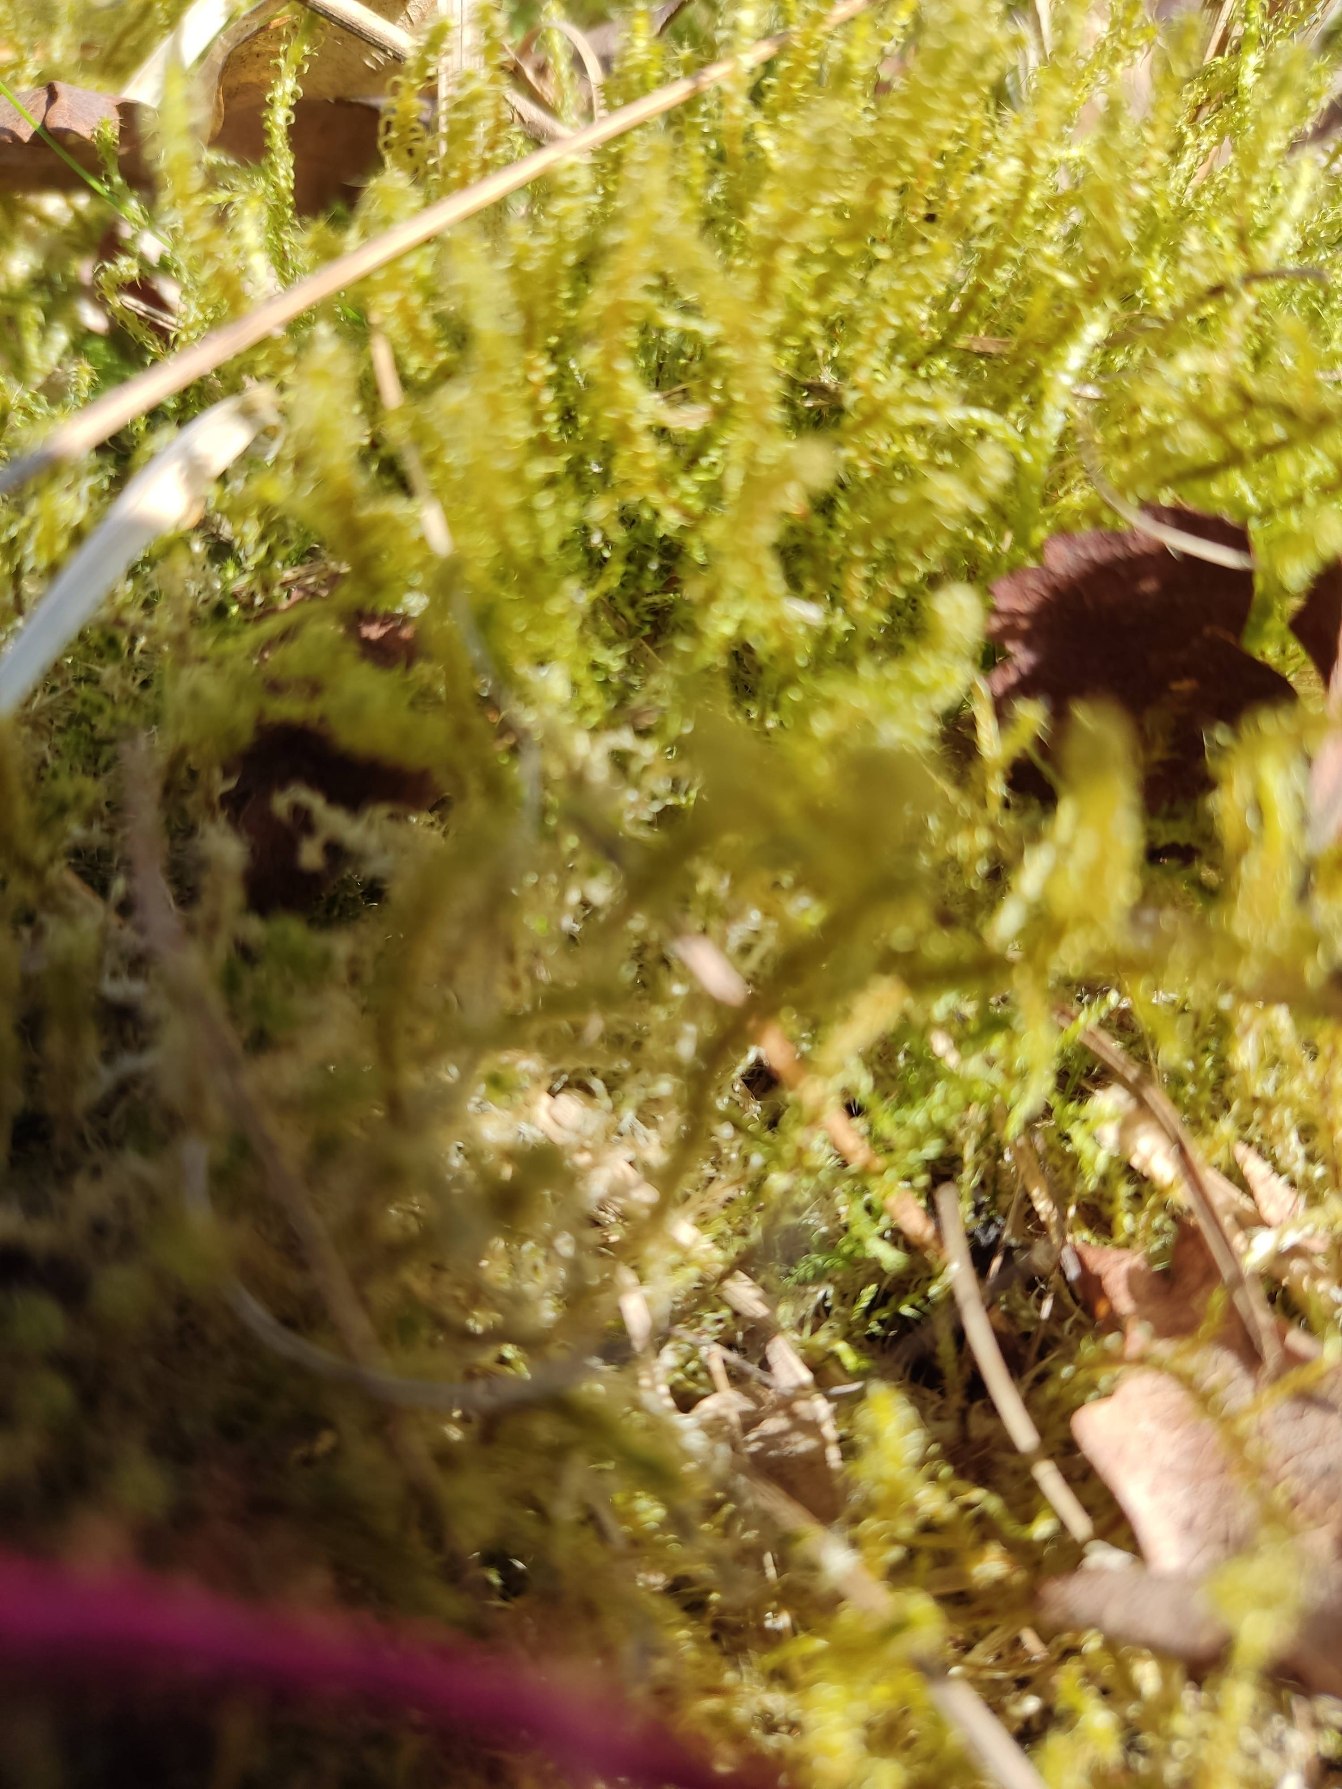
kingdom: Plantae
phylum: Bryophyta
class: Bryopsida
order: Hypnales
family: Hylocomiaceae
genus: Rhytidiadelphus
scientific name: Rhytidiadelphus squarrosus
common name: Plæne-kransemos
